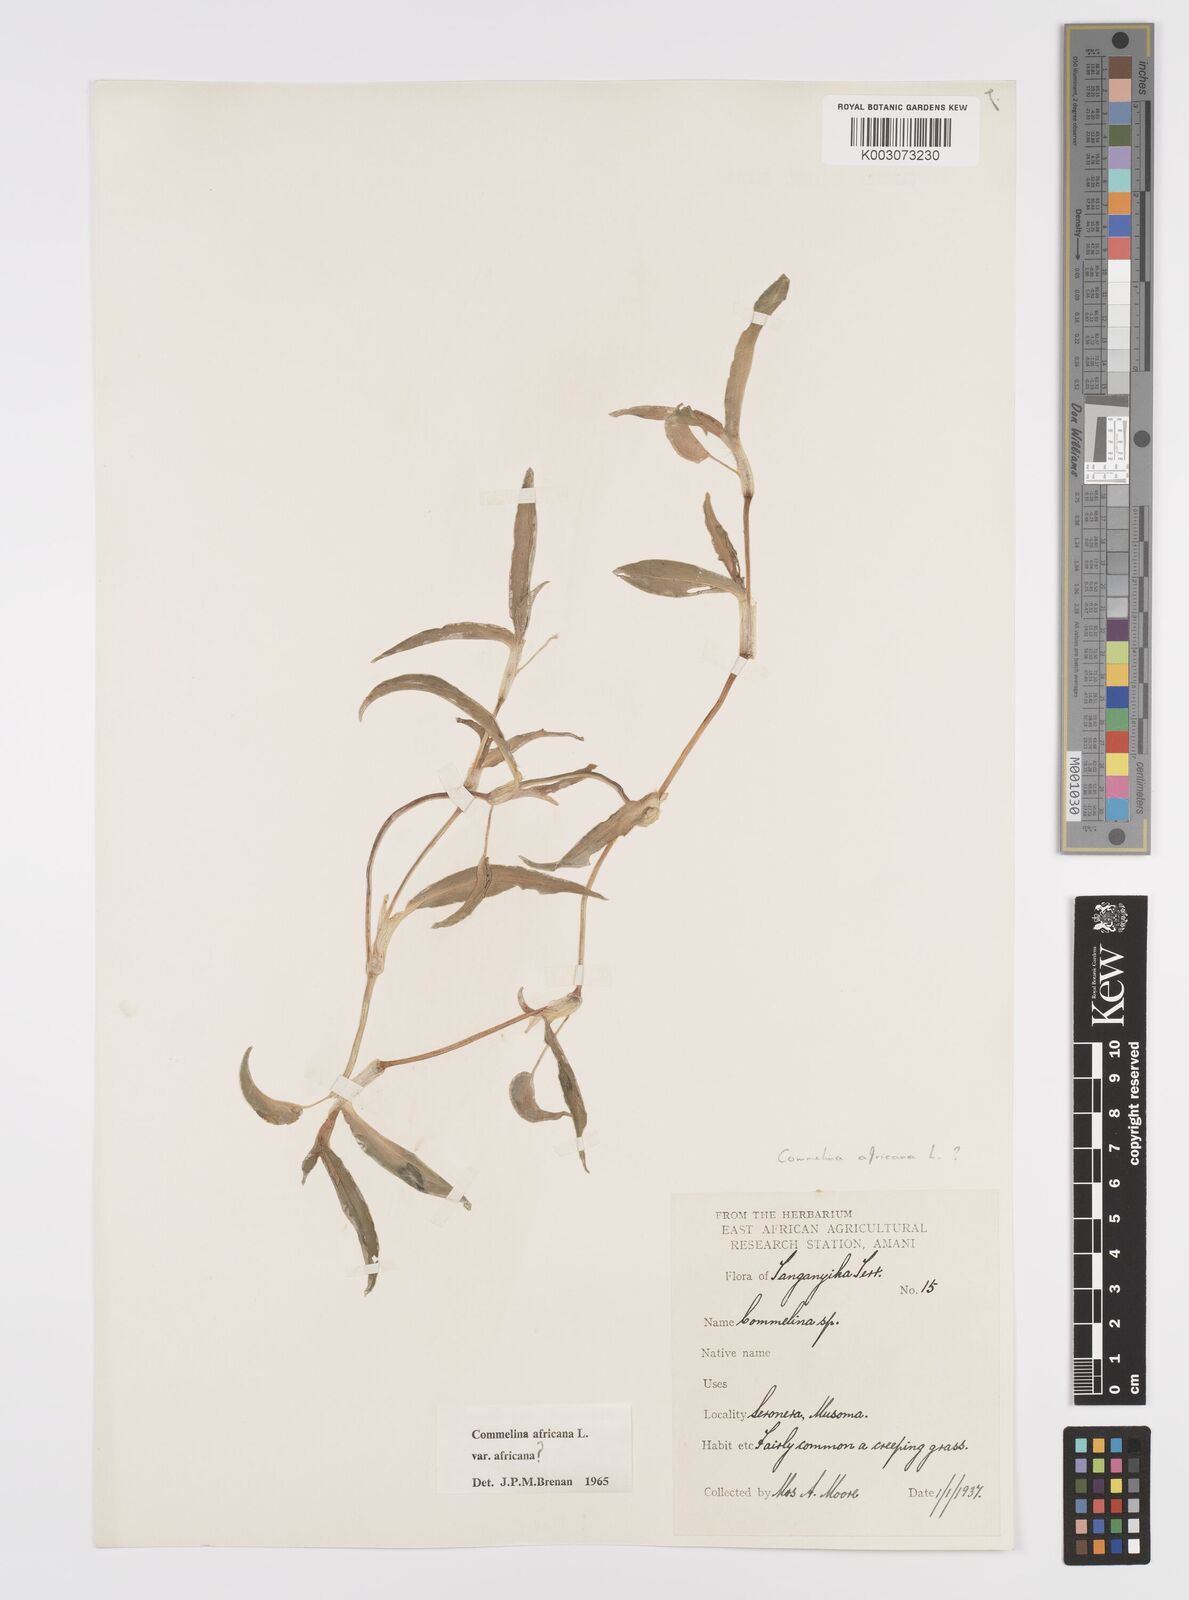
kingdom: Plantae
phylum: Tracheophyta
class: Liliopsida
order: Commelinales
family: Commelinaceae
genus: Commelina
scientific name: Commelina africana
